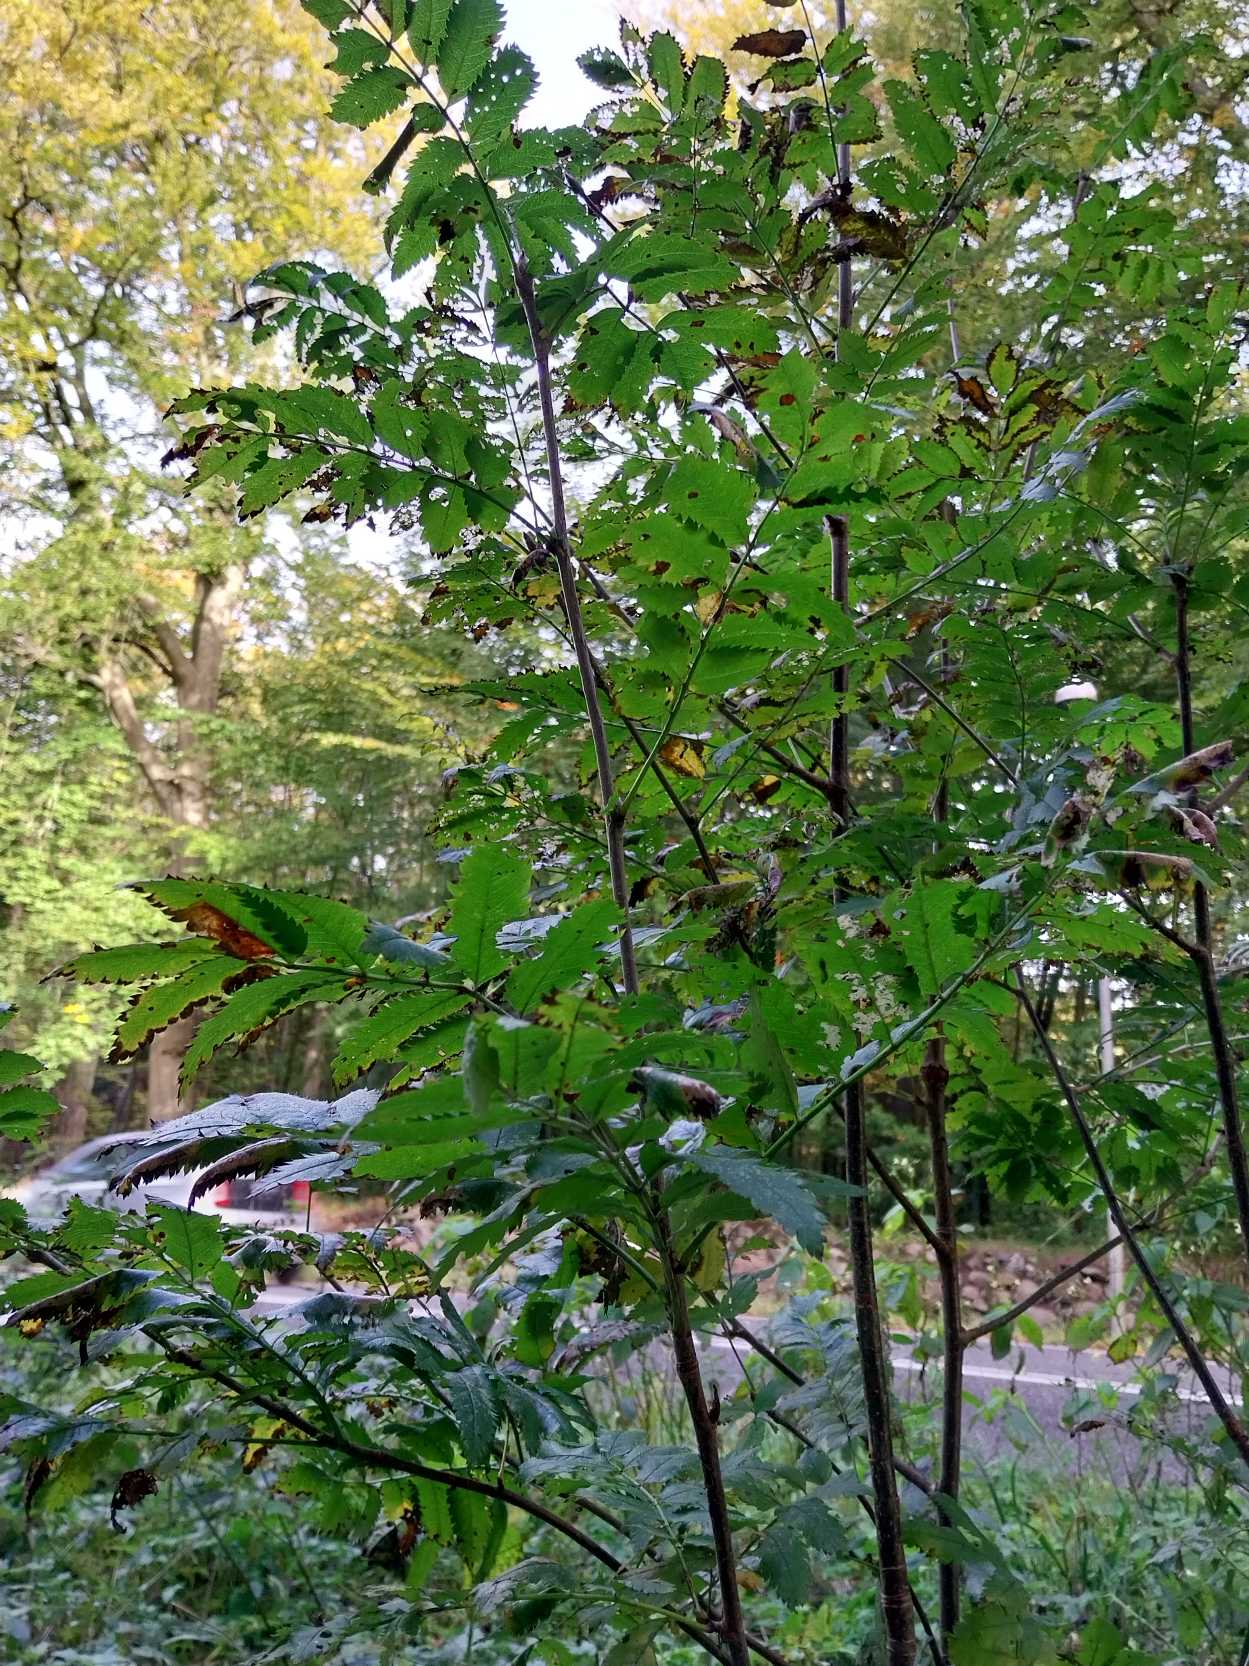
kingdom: Plantae
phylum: Tracheophyta
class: Magnoliopsida
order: Rosales
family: Rosaceae
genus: Sorbus
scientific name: Sorbus aucuparia
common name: Almindelig røn
